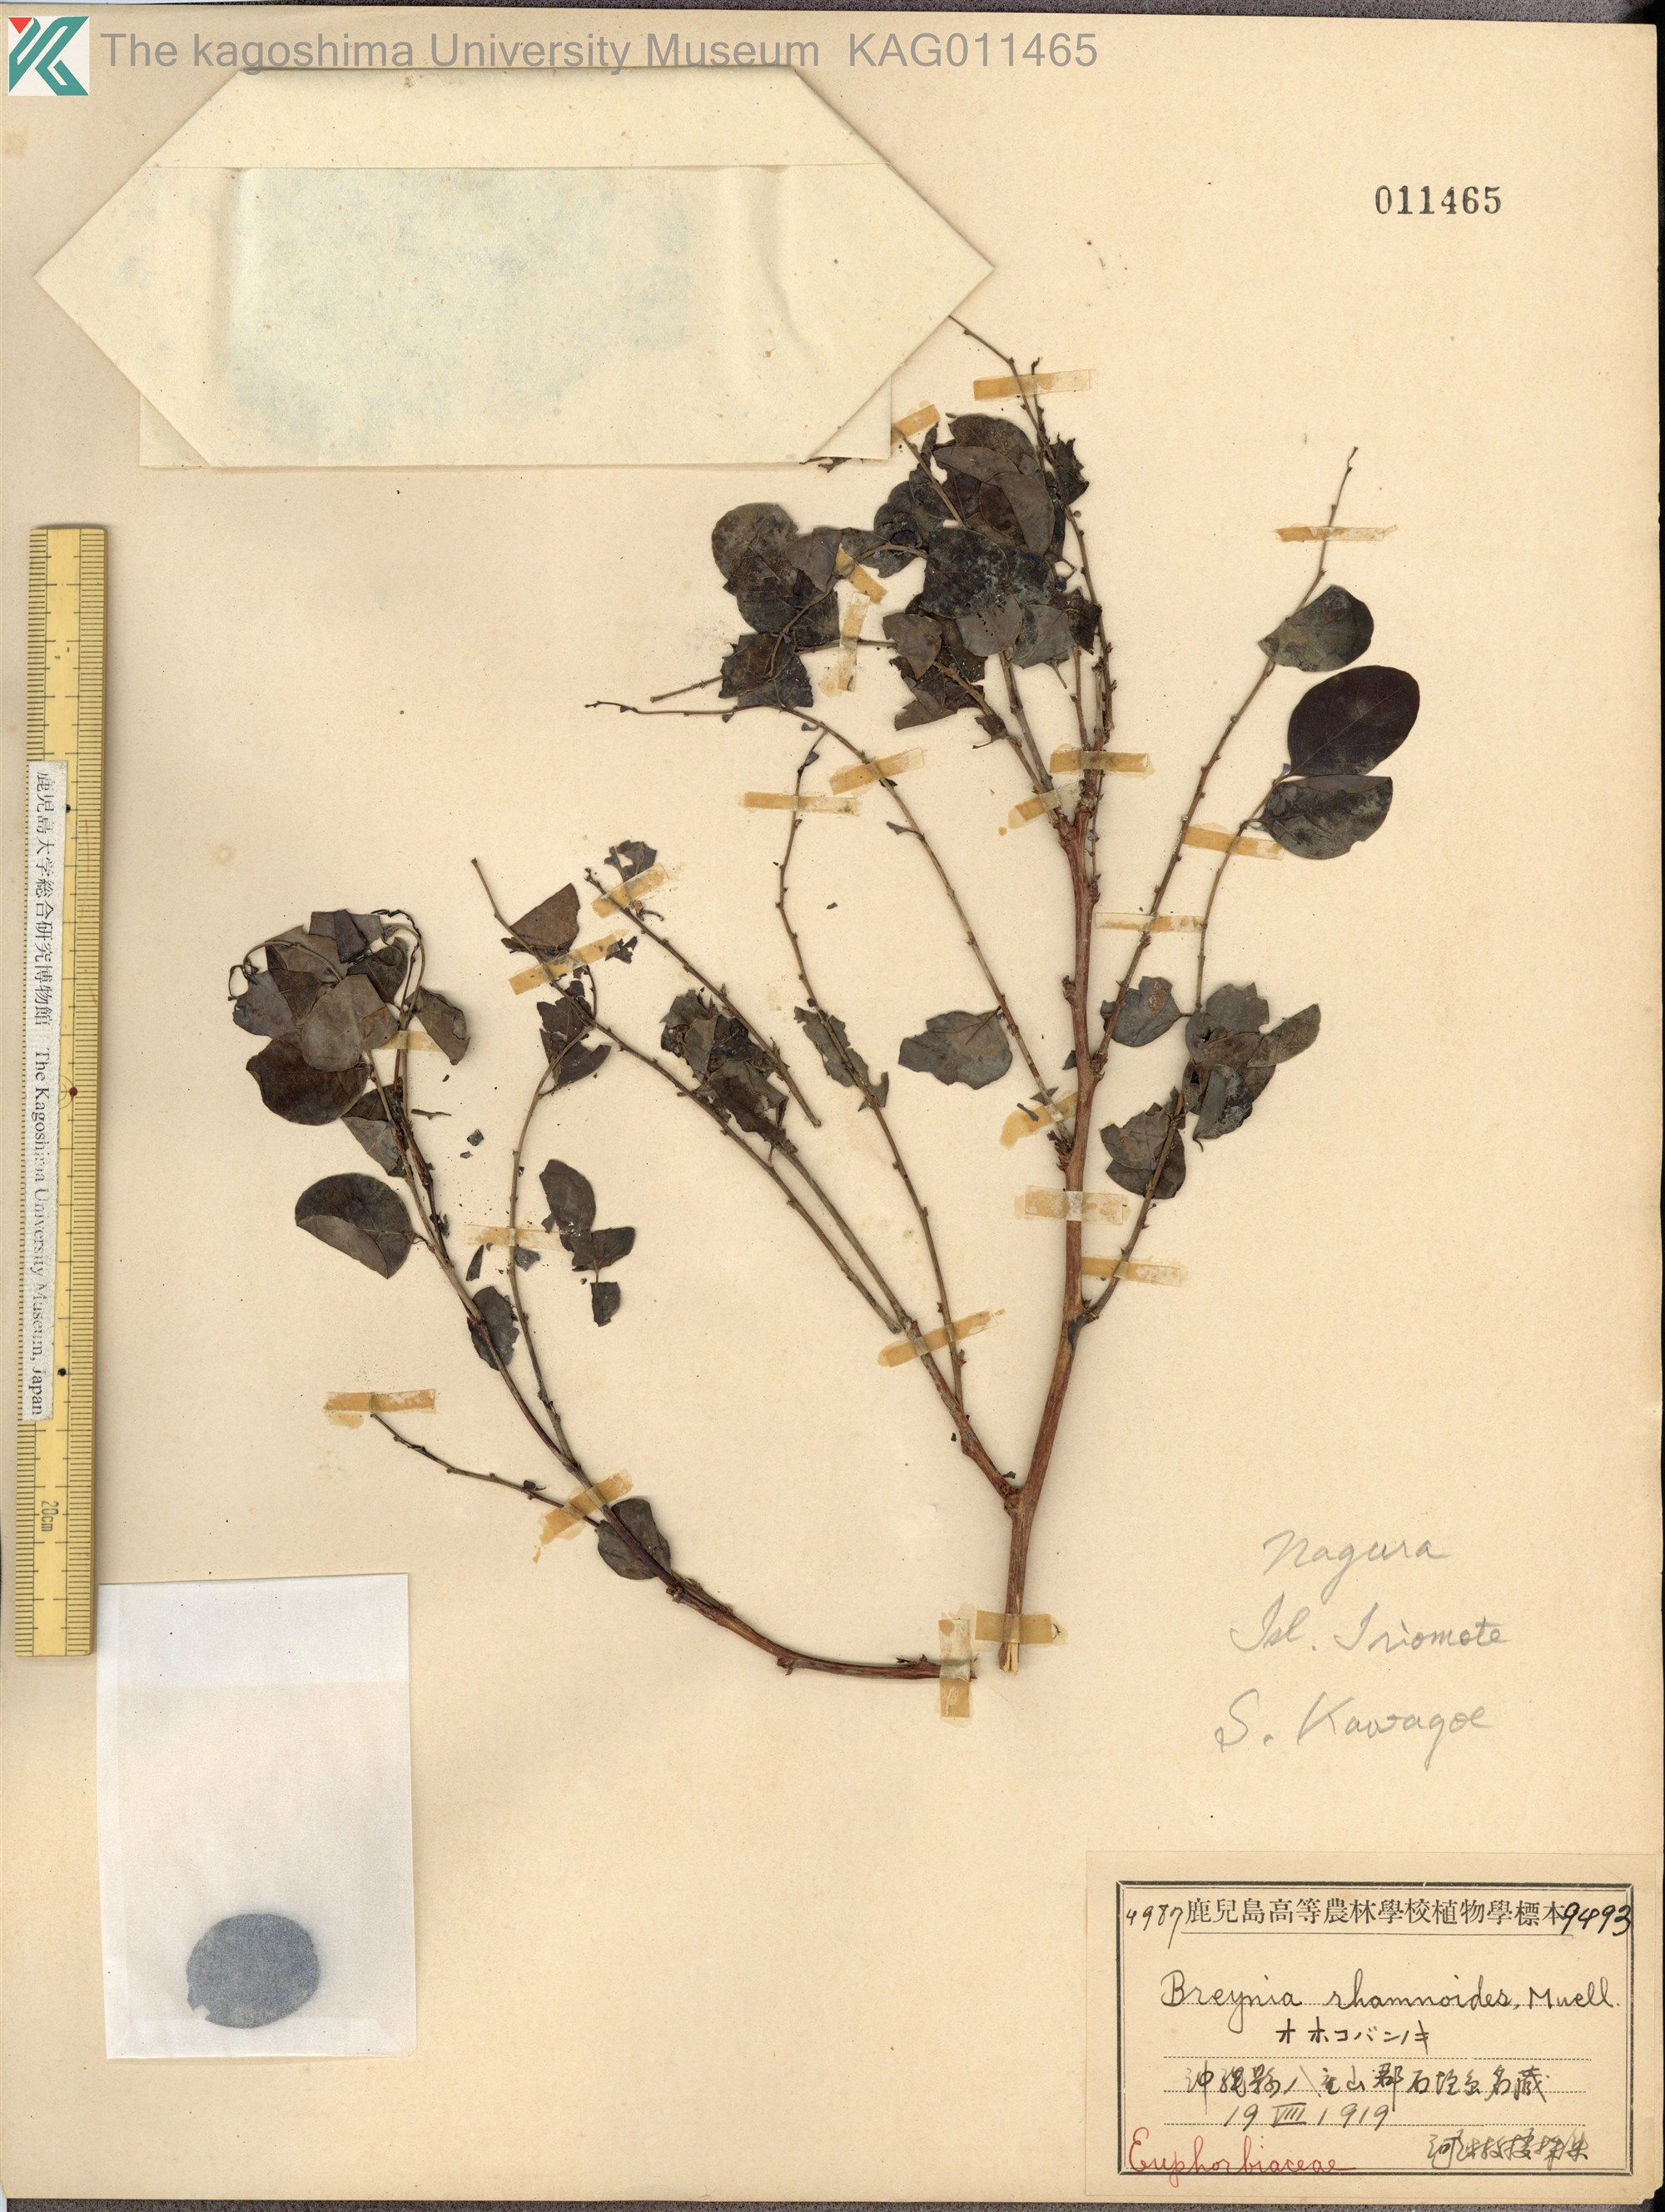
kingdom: Plantae
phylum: Tracheophyta
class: Magnoliopsida
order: Malpighiales
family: Phyllanthaceae
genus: Breynia
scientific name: Breynia vitis-idaea
